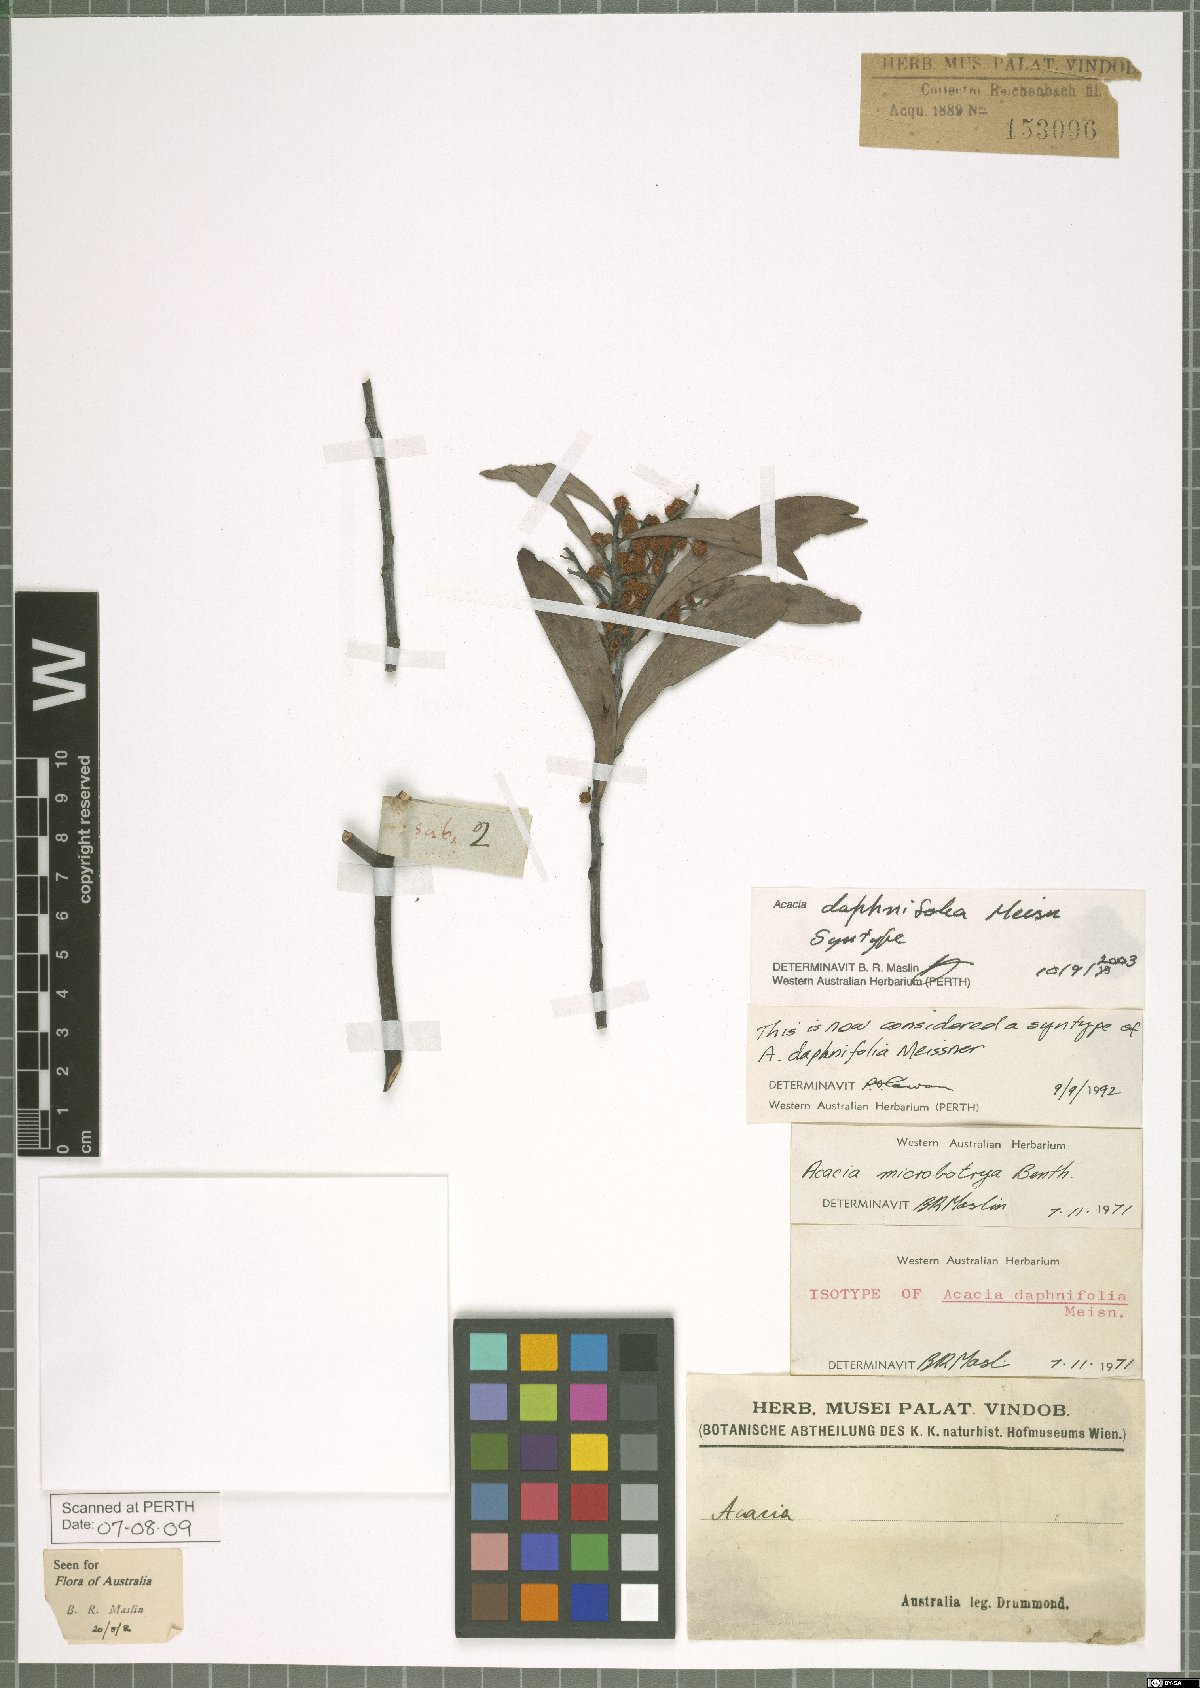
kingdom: Plantae
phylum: Tracheophyta
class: Magnoliopsida
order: Fabales
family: Fabaceae
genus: Acacia
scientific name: Acacia daphnifolia
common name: Northern manna wattle
